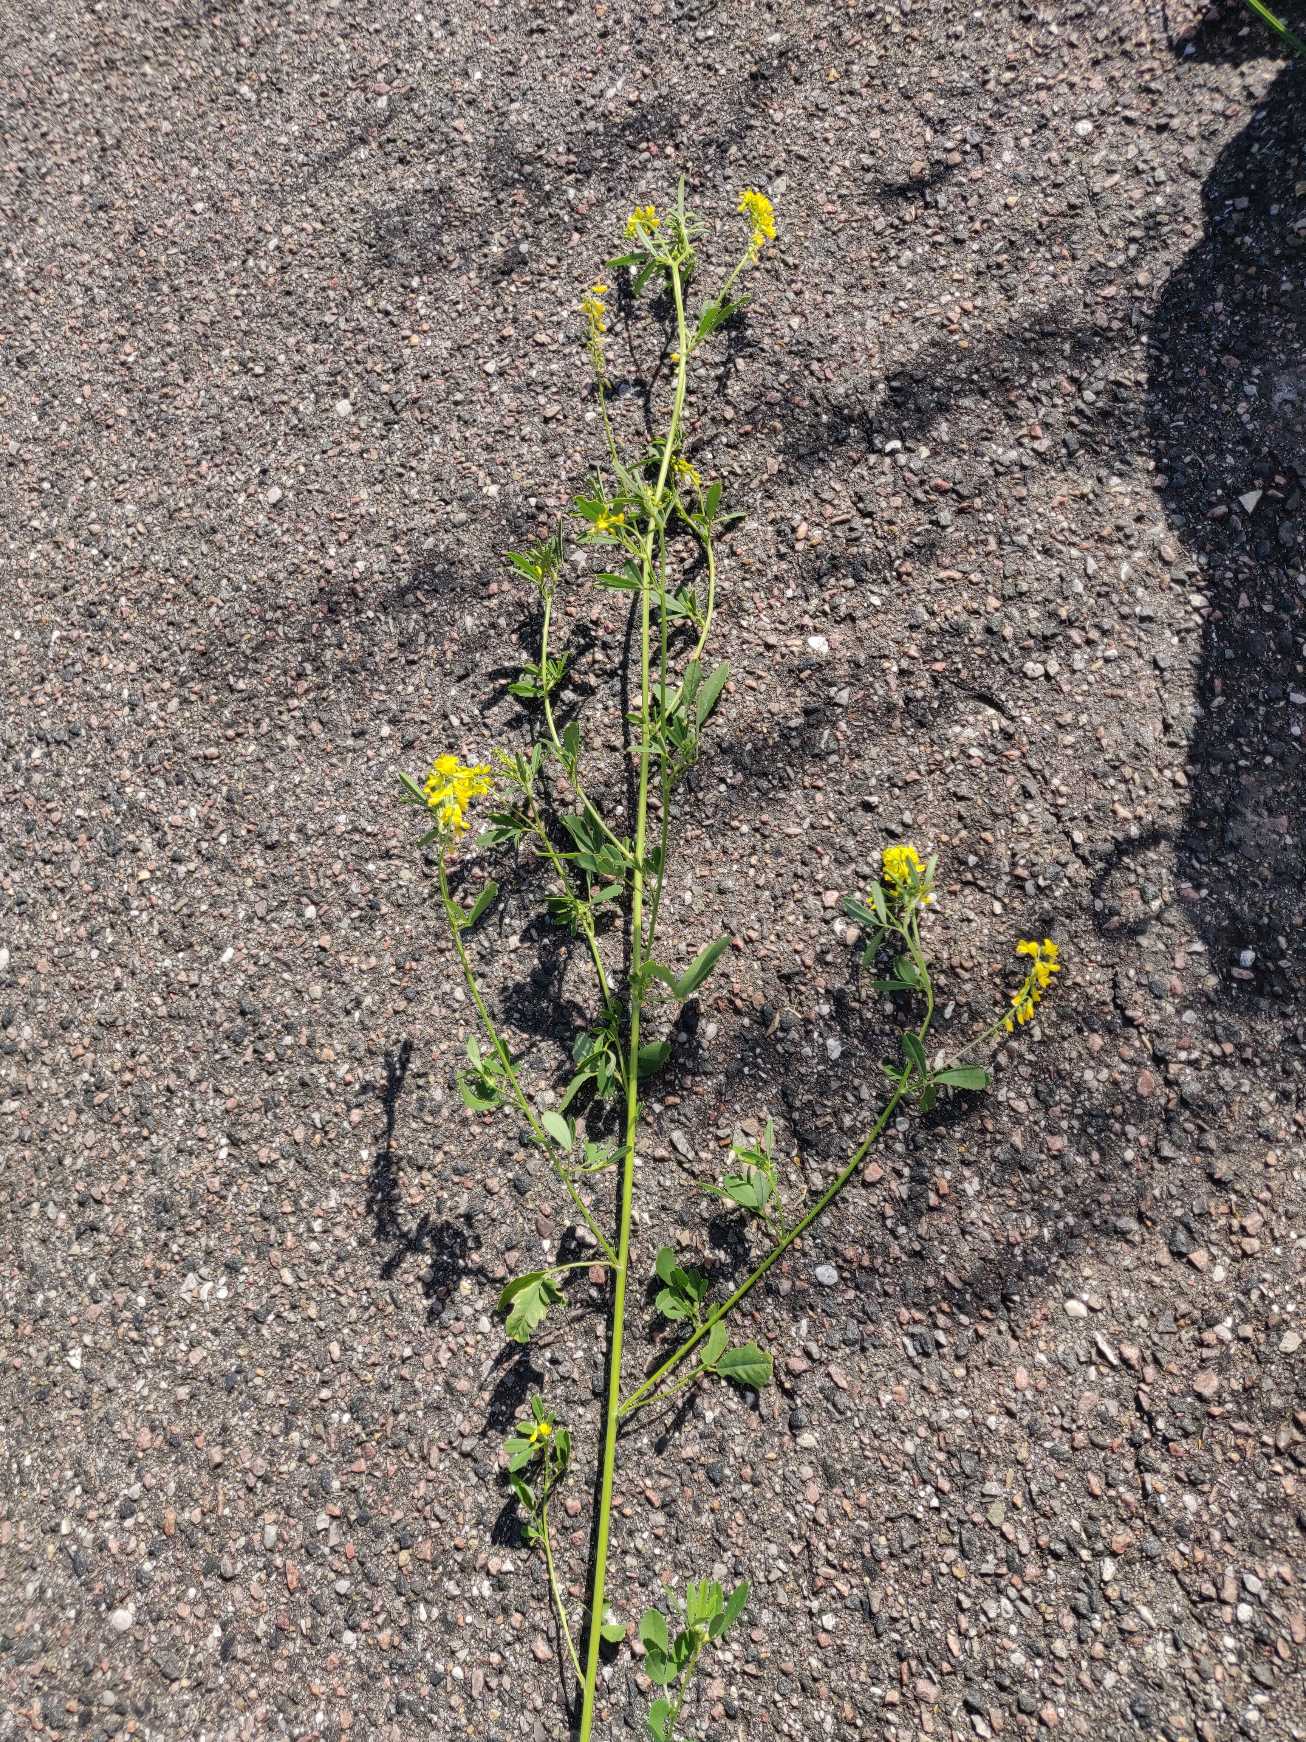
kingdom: Plantae
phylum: Tracheophyta
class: Magnoliopsida
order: Fabales
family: Fabaceae
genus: Melilotus
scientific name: Melilotus altissimus
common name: Høj stenkløver
